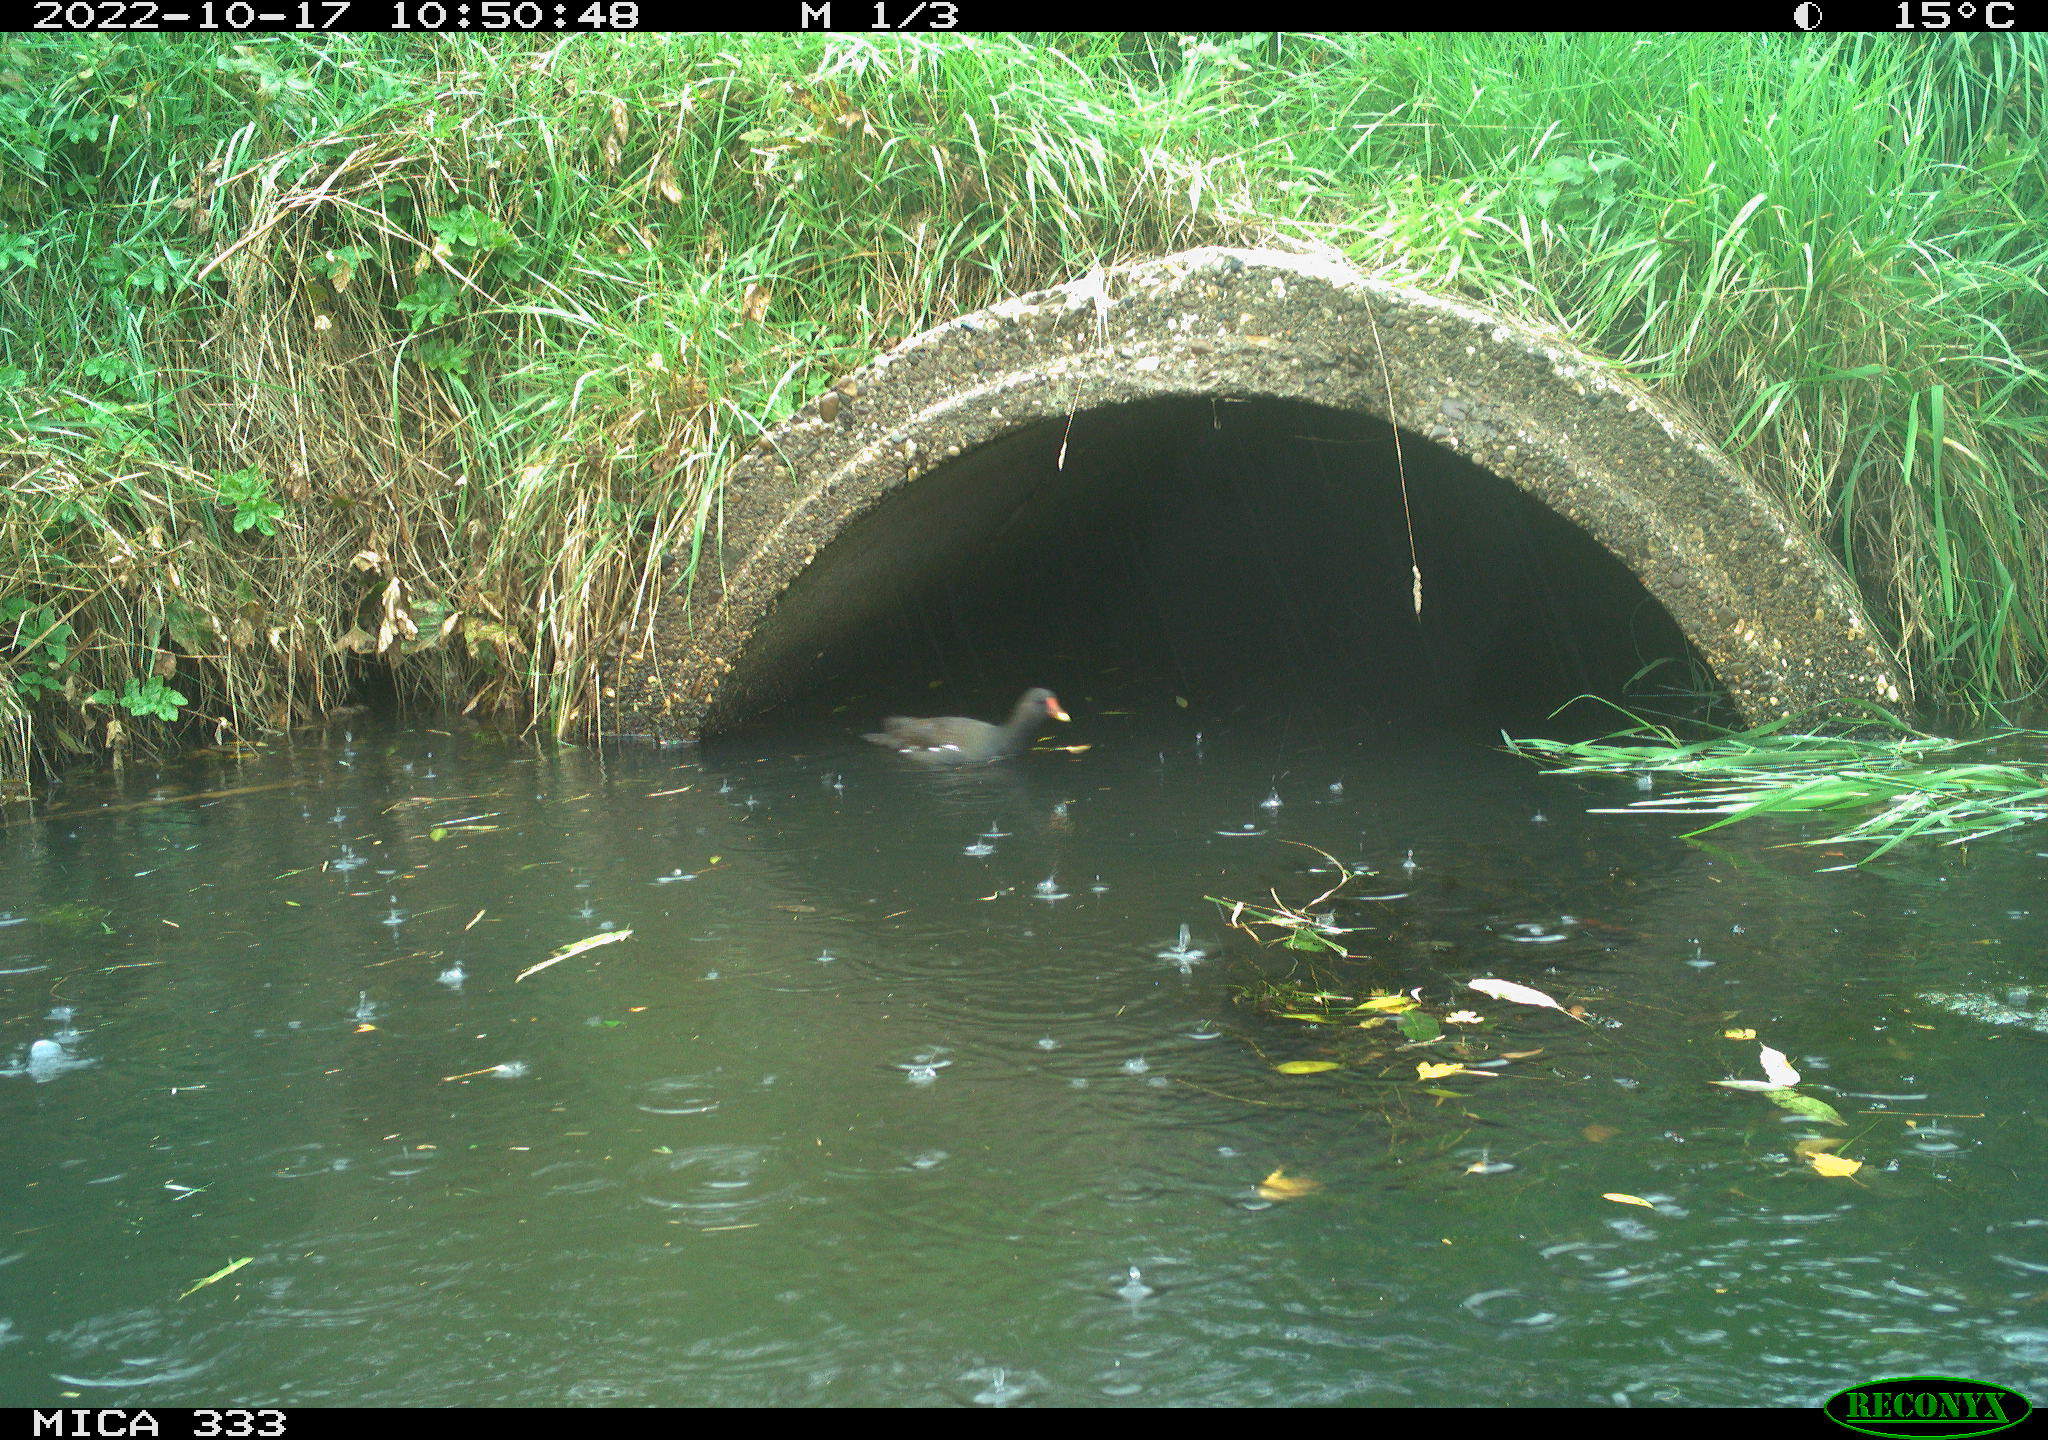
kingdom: Animalia
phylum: Chordata
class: Aves
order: Gruiformes
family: Rallidae
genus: Gallinula
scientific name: Gallinula chloropus
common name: Common moorhen
